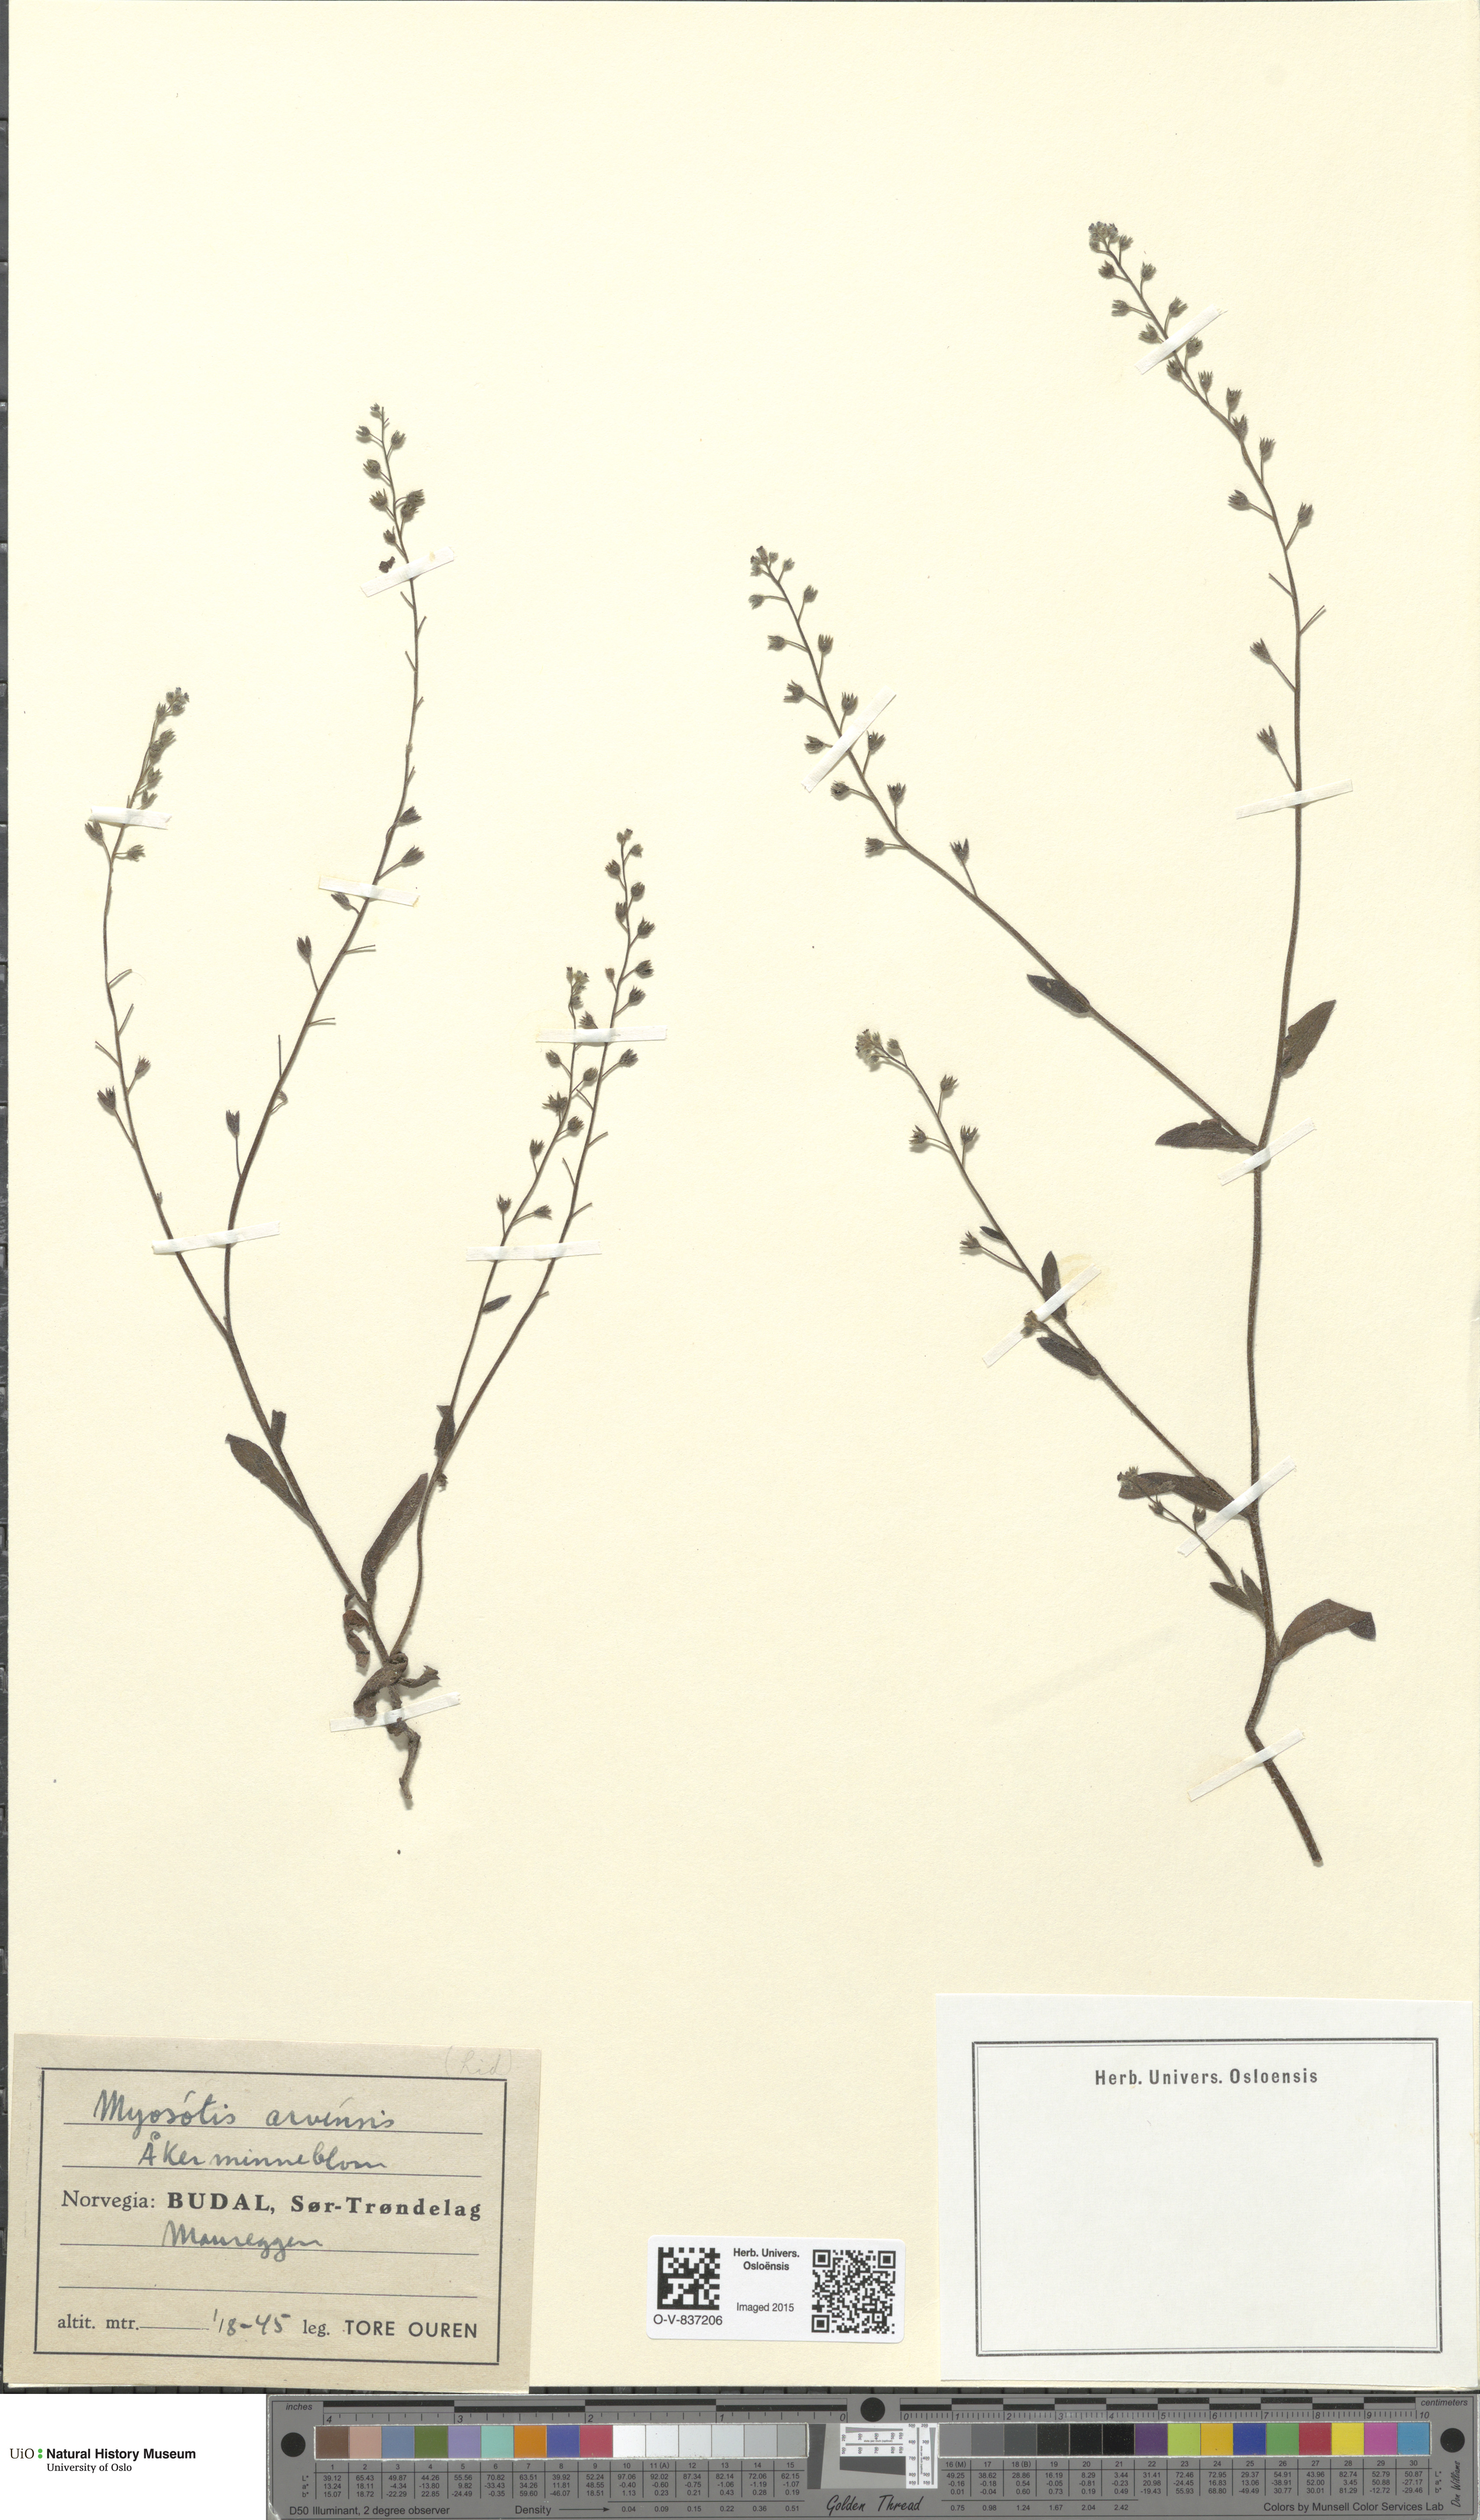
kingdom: Plantae
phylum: Tracheophyta
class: Magnoliopsida
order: Boraginales
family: Boraginaceae
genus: Myosotis
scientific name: Myosotis arvensis
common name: Field forget-me-not
